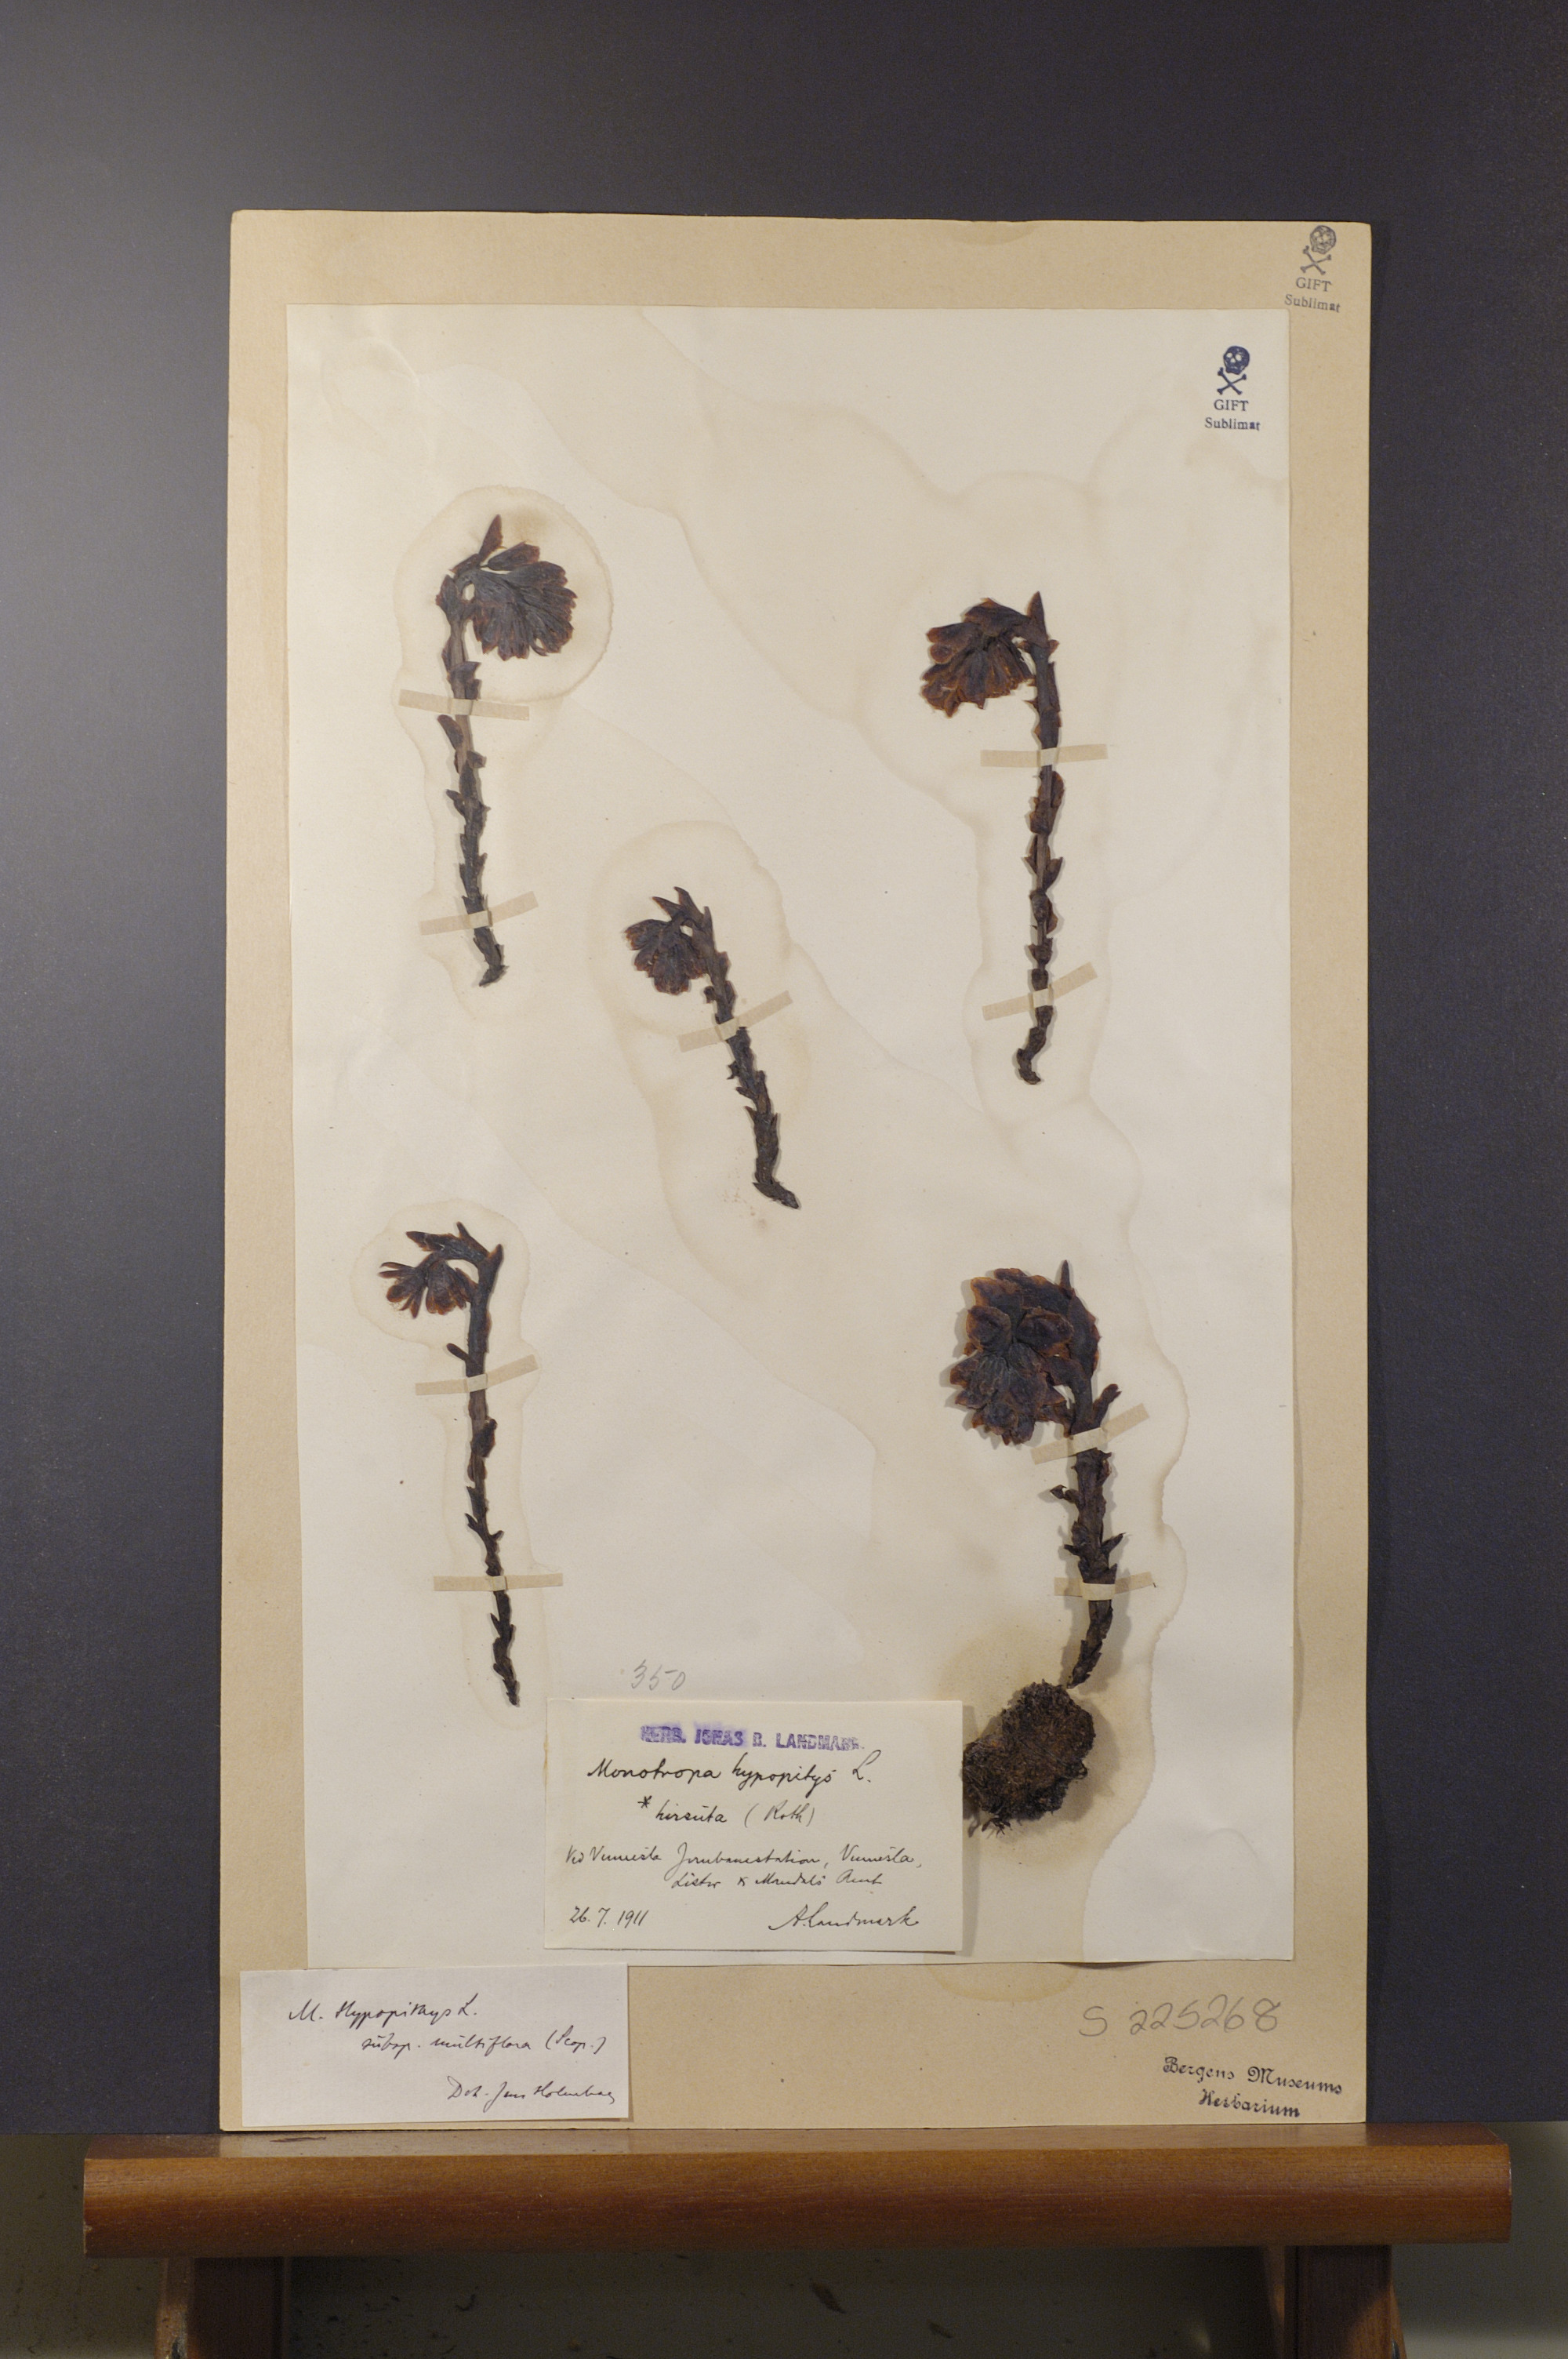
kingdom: Plantae
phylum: Tracheophyta
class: Magnoliopsida
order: Ericales
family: Ericaceae
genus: Hypopitys
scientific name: Hypopitys monotropa
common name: Yellow bird's-nest
